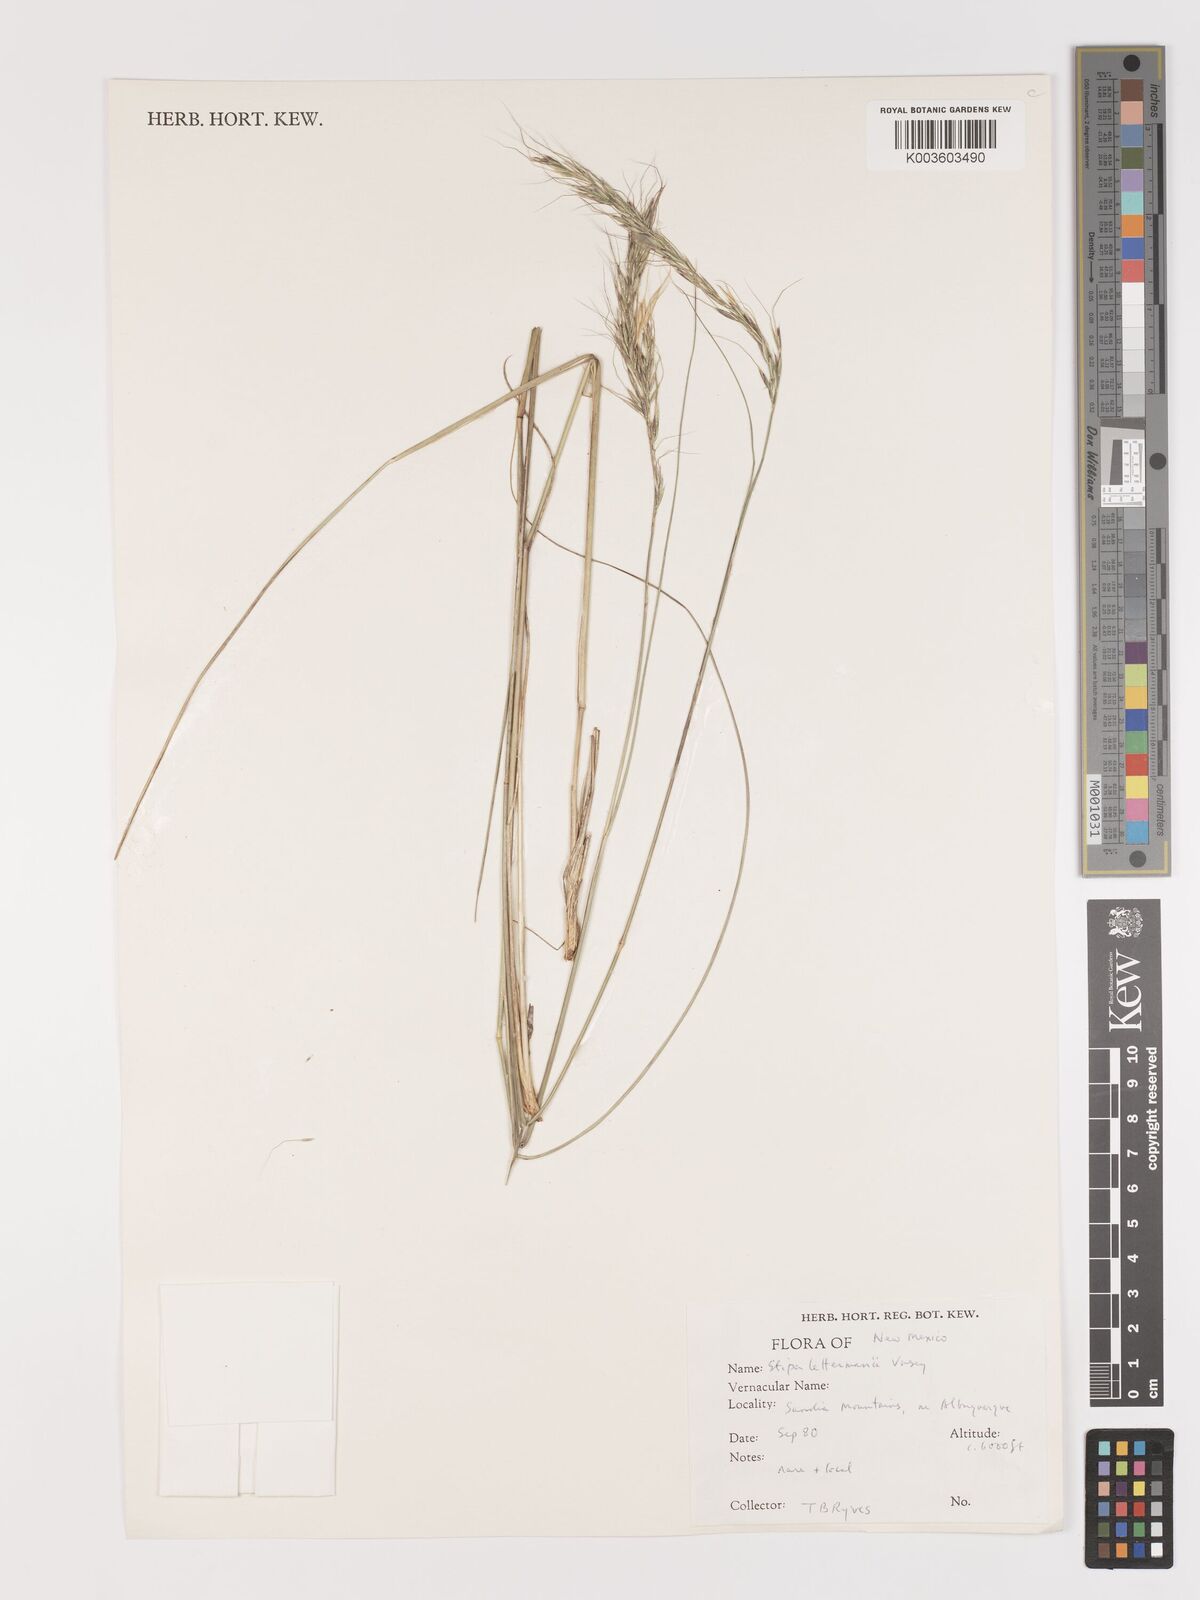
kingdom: Plantae
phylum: Tracheophyta
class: Liliopsida
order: Poales
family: Poaceae
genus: Eriocoma
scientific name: Eriocoma lettermanii
